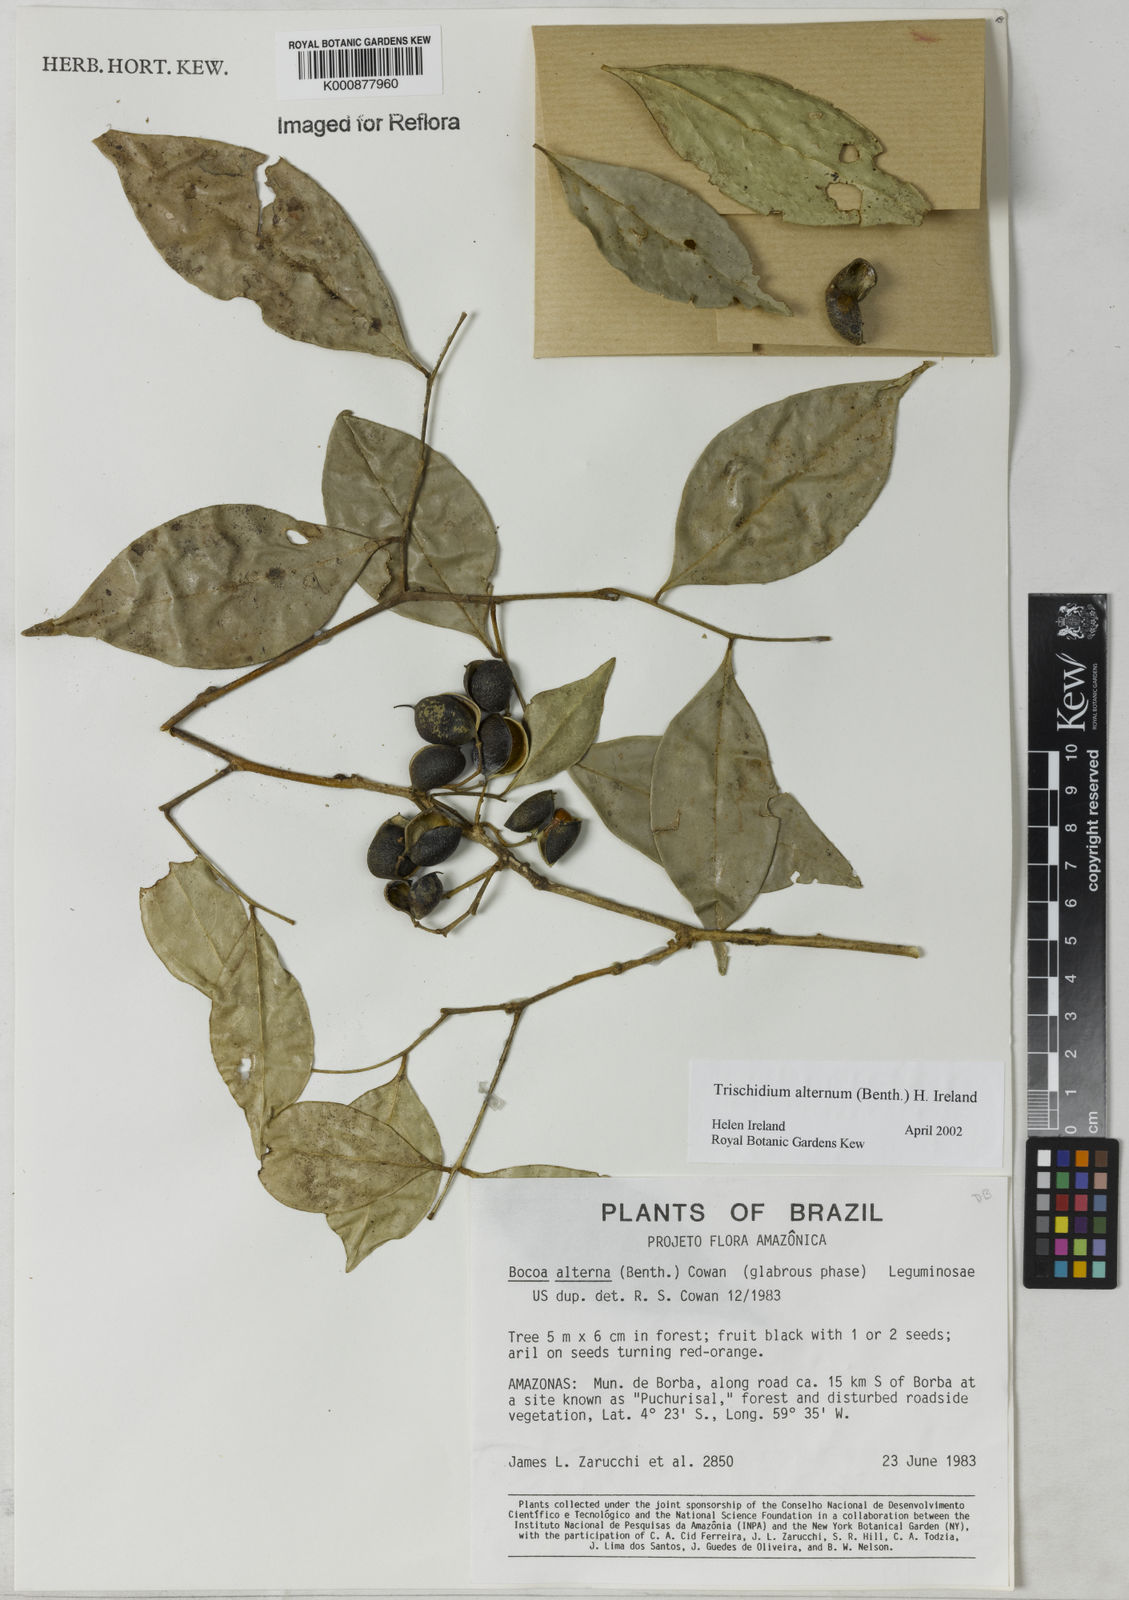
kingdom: Plantae
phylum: Tracheophyta
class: Magnoliopsida
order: Fabales
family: Fabaceae
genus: Trischidium
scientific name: Trischidium alternum
